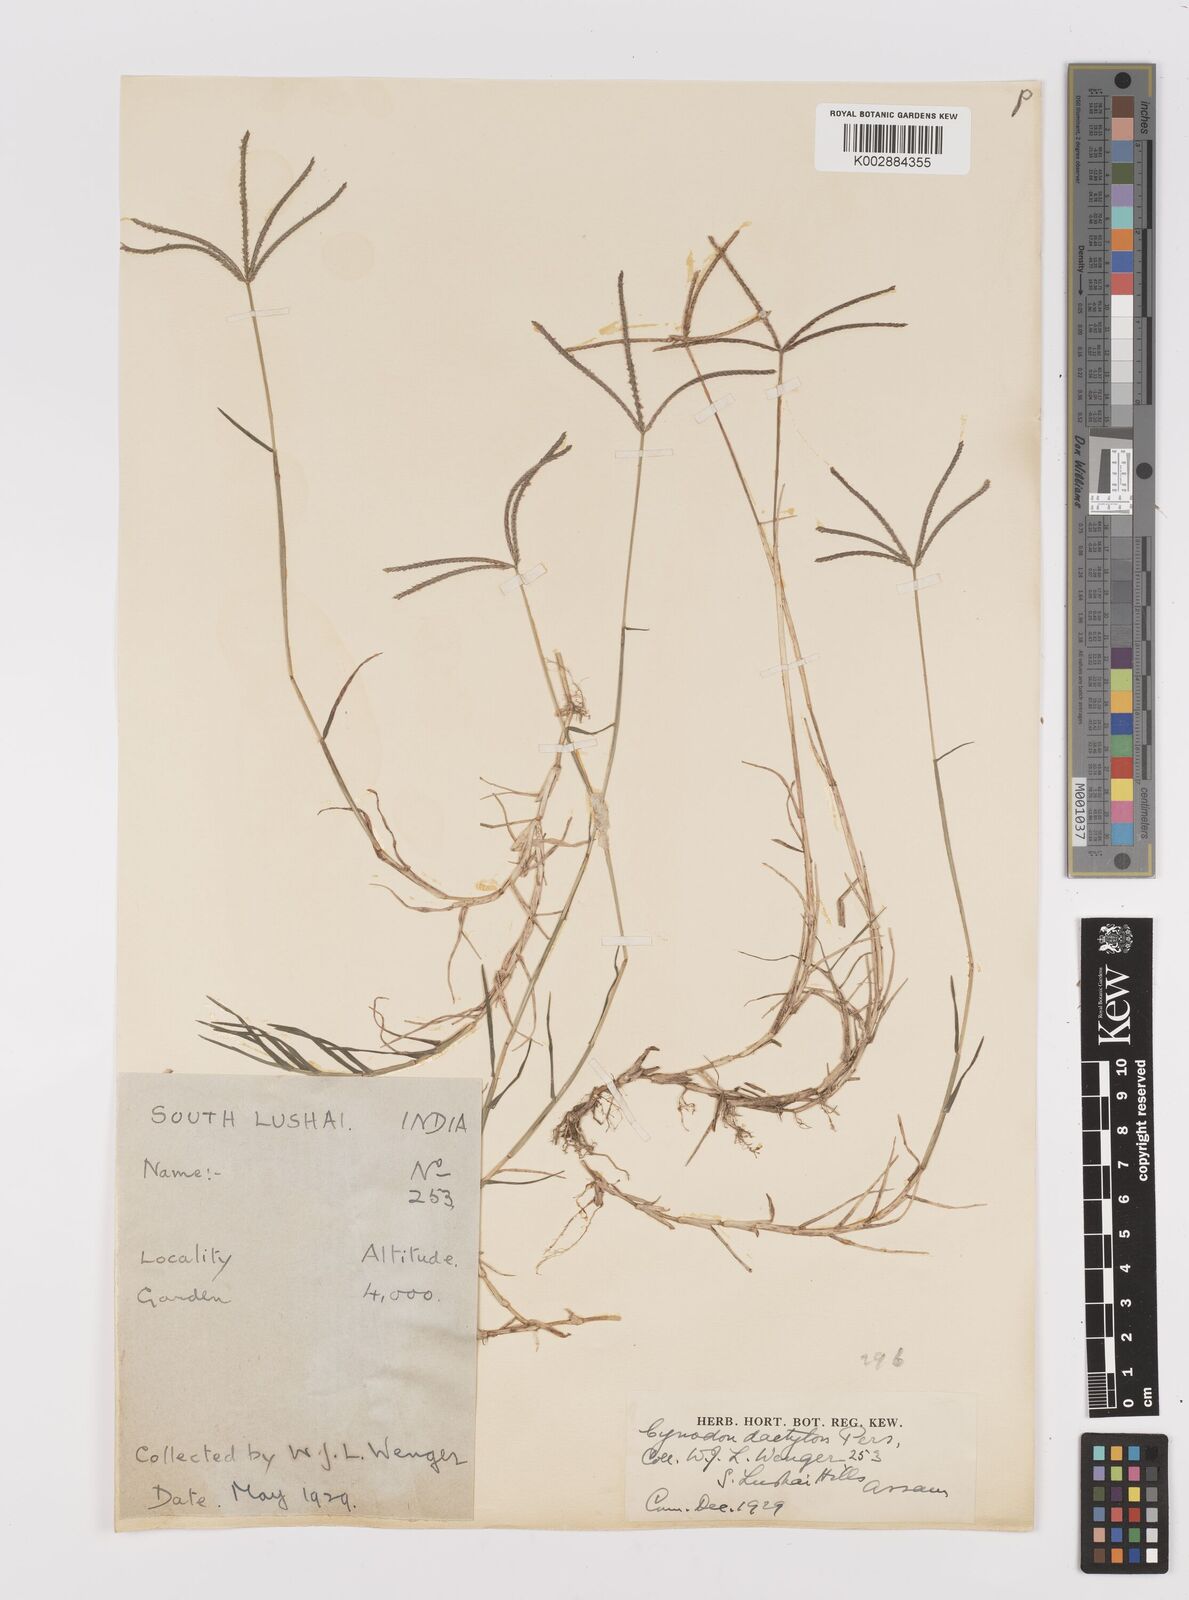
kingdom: Plantae
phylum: Tracheophyta
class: Liliopsida
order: Poales
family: Poaceae
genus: Cynodon
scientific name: Cynodon dactylon
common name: Bermuda grass
